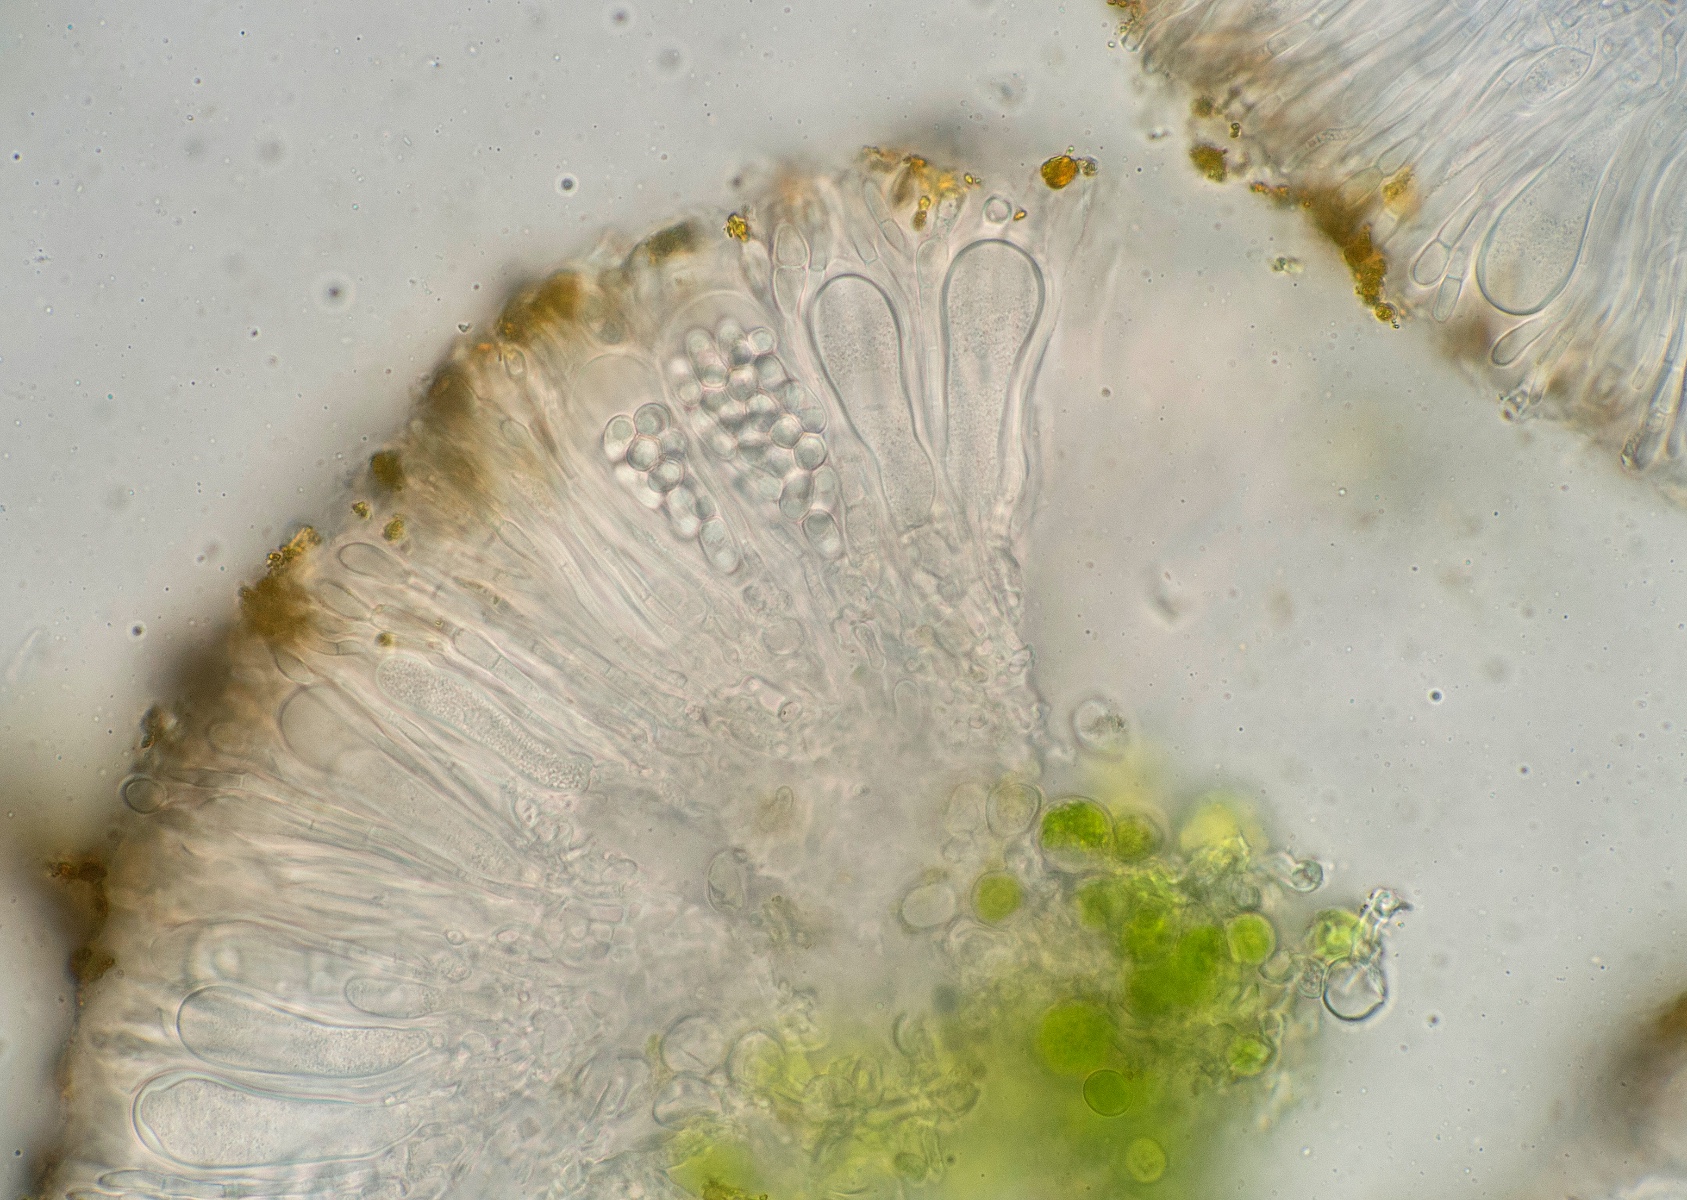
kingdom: Fungi
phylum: Ascomycota
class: Candelariomycetes
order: Candelariales
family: Candelariaceae
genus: Candelariella
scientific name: Candelariella vitellina
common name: almindelig æggeblommelav
